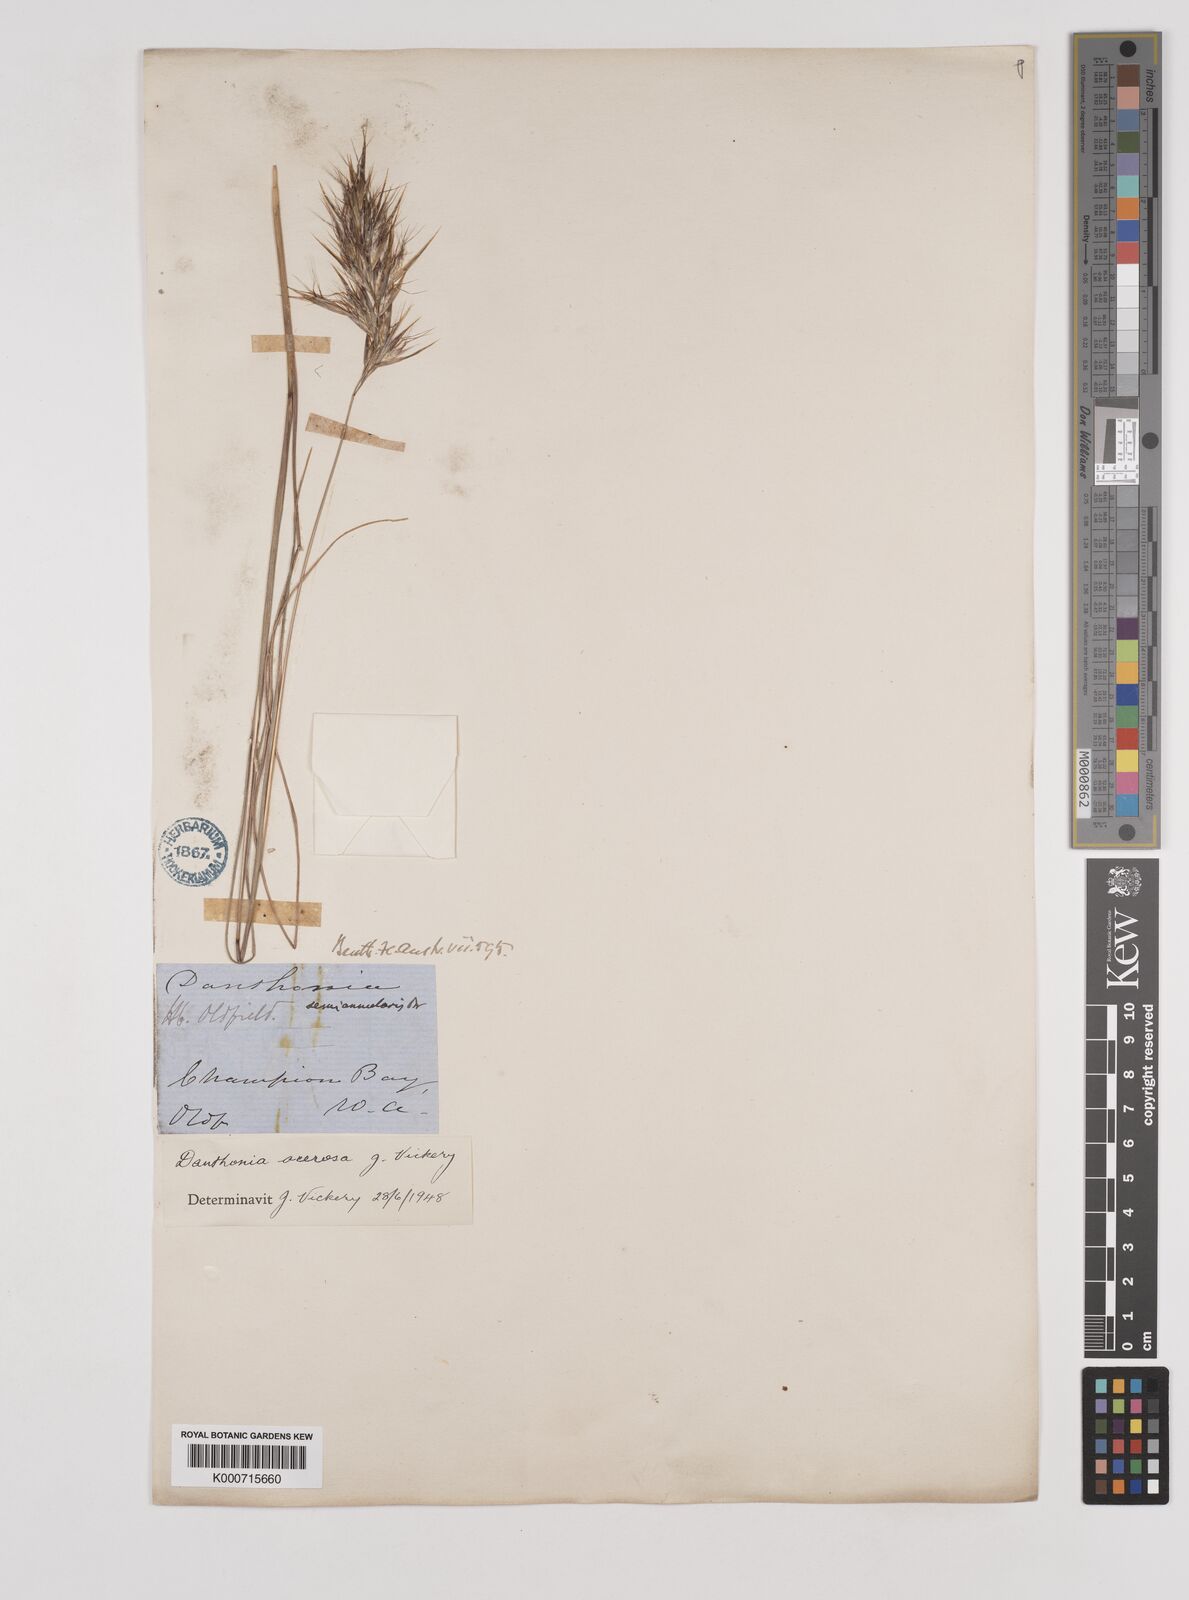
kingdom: Plantae
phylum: Tracheophyta
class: Liliopsida
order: Poales
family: Poaceae
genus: Rytidosperma
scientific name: Rytidosperma acerosum
